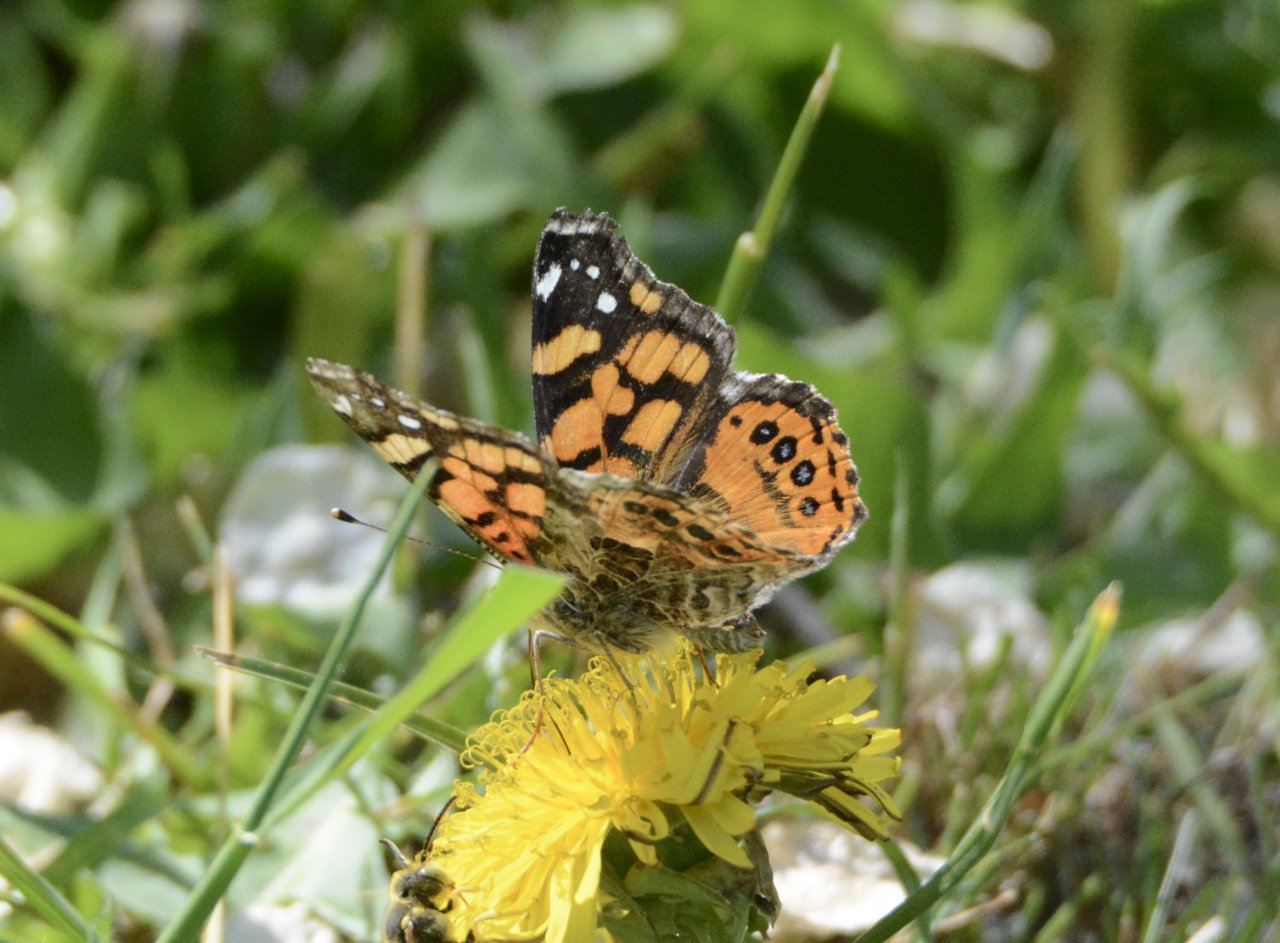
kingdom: Animalia
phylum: Arthropoda
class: Insecta
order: Lepidoptera
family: Nymphalidae
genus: Vanessa
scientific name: Vanessa annabella
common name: West Coast Lady
